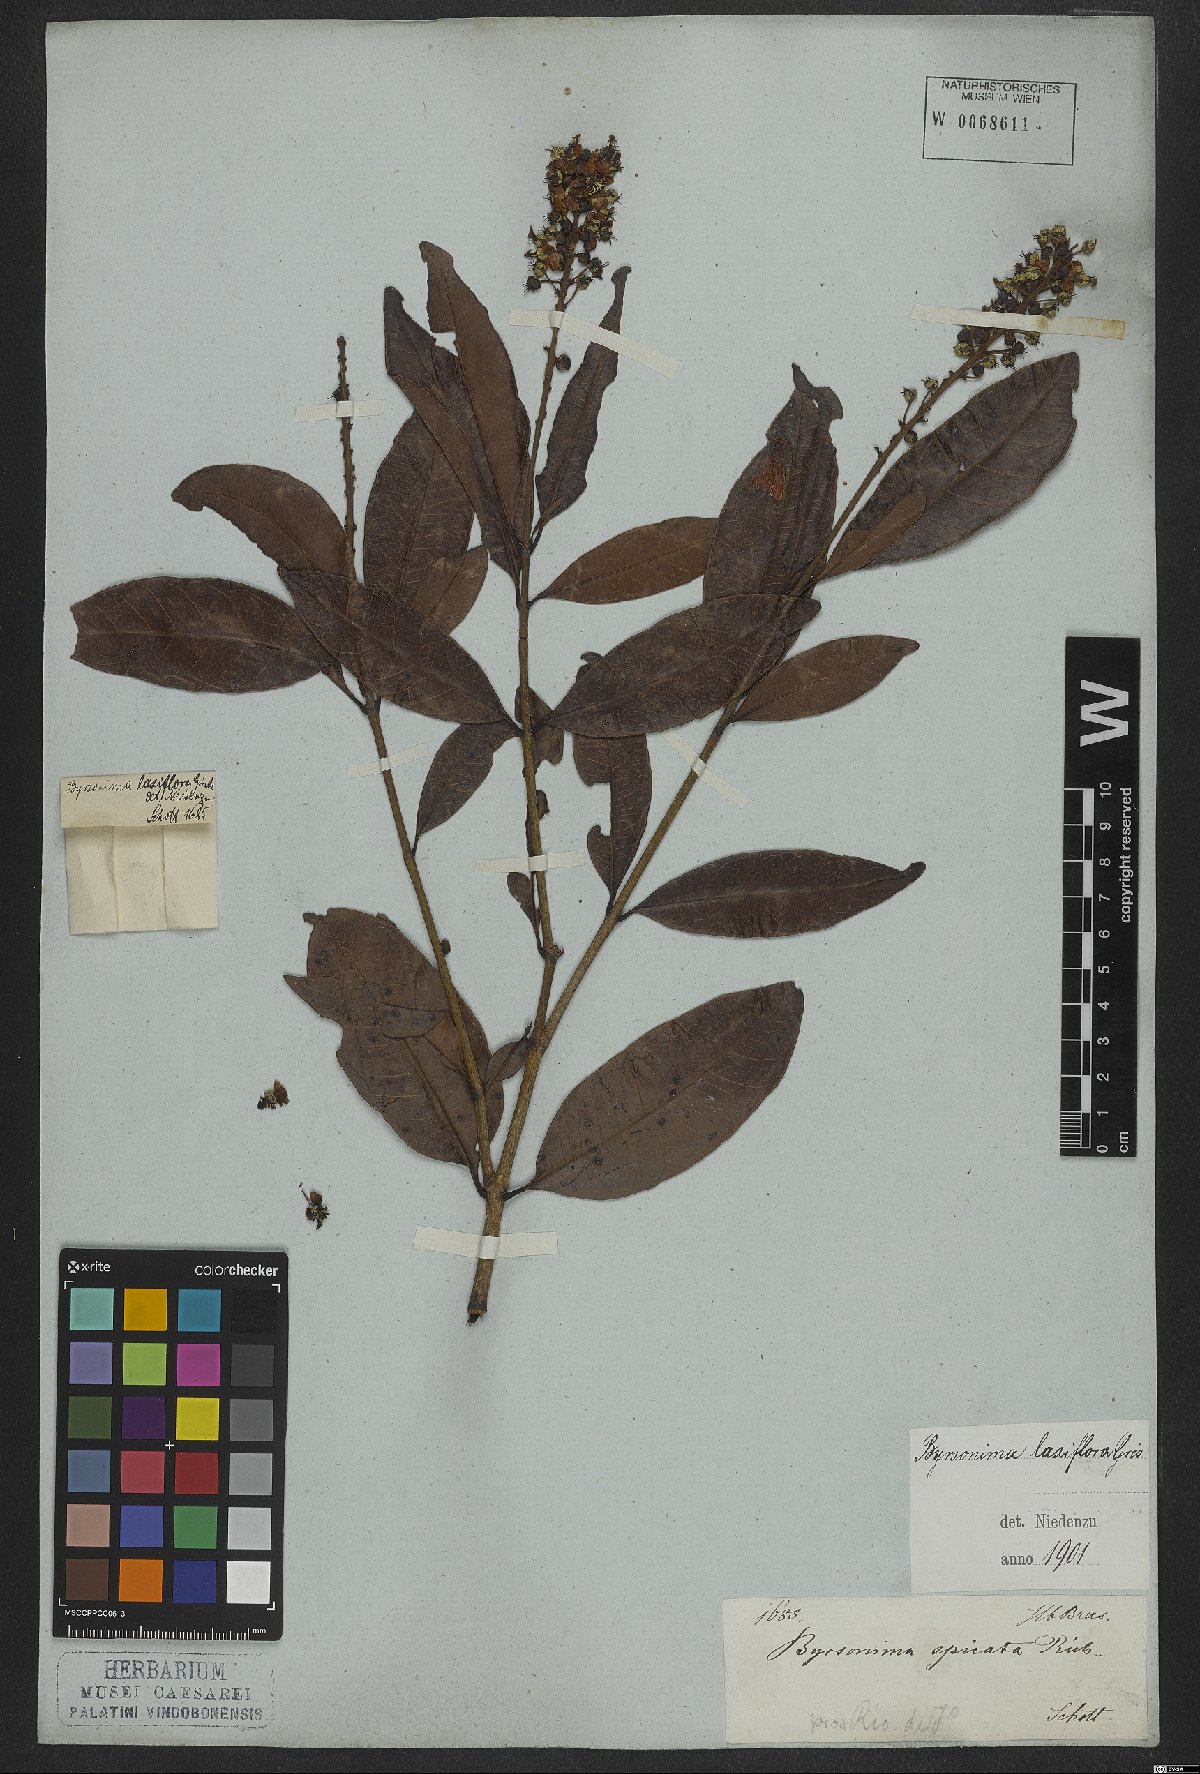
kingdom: Plantae
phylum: Tracheophyta
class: Magnoliopsida
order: Malpighiales
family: Malpighiaceae
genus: Byrsonima
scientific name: Byrsonima laxiflora
